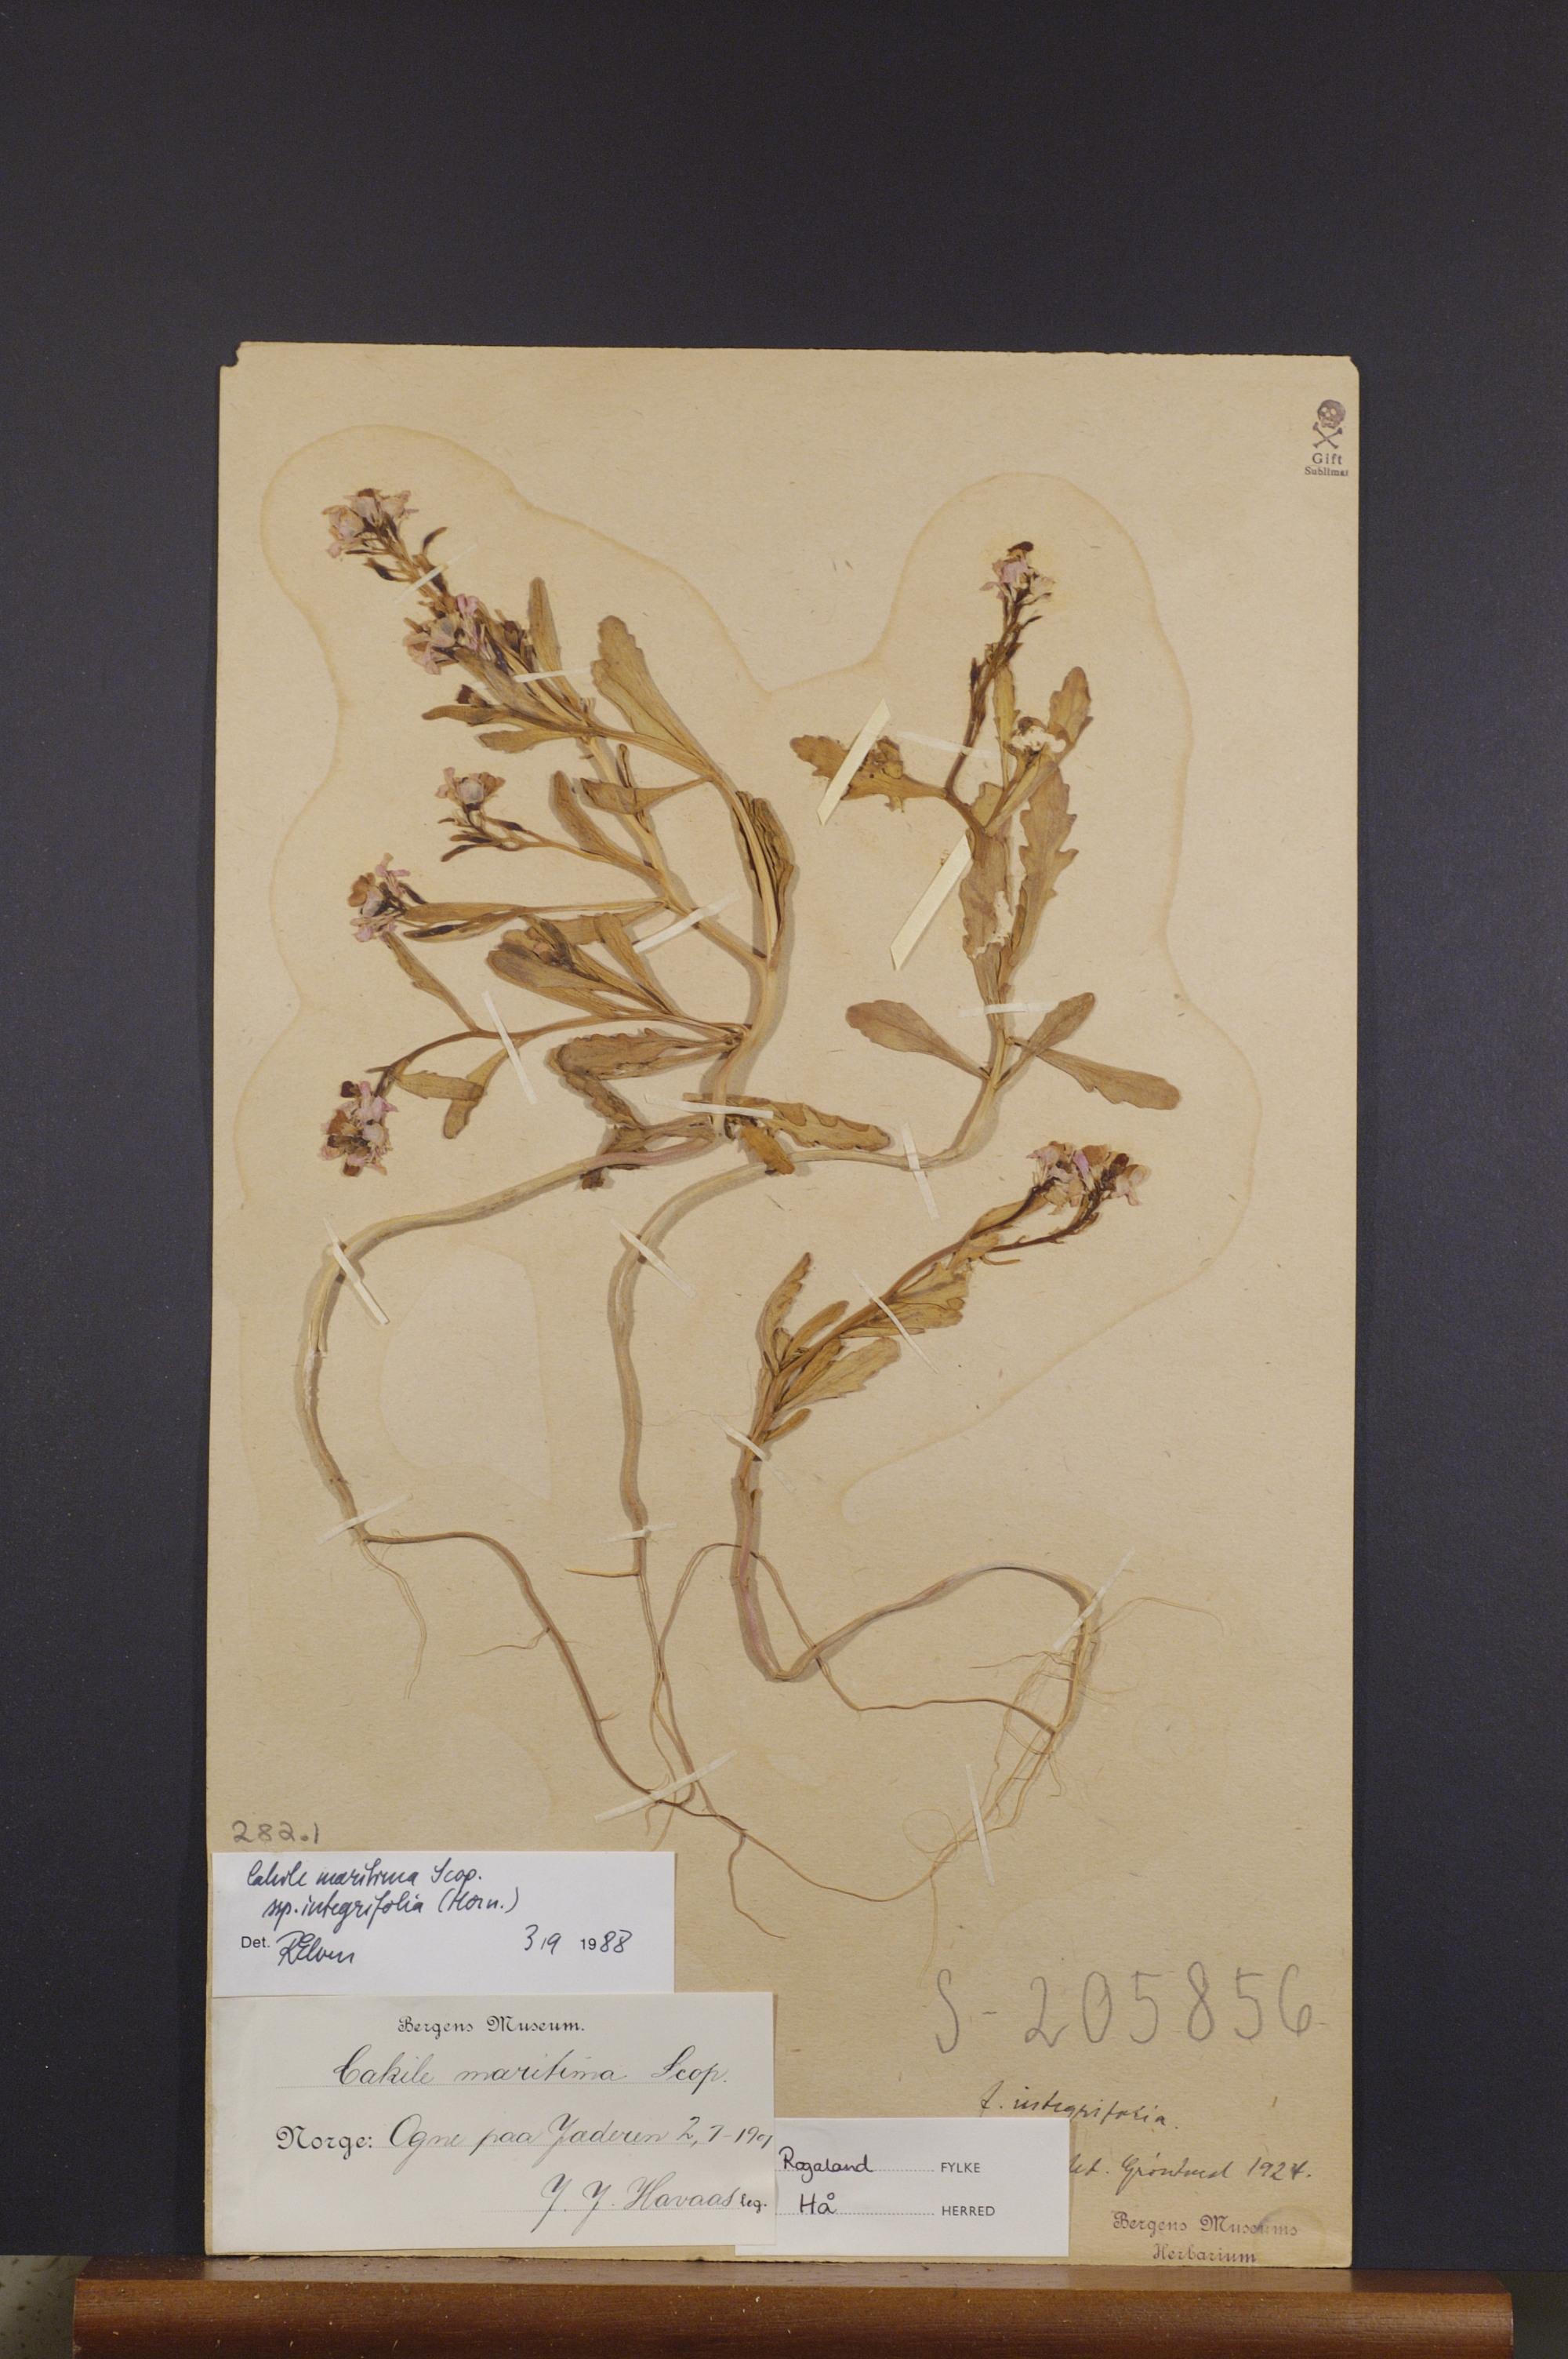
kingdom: Plantae
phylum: Tracheophyta
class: Magnoliopsida
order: Brassicales
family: Brassicaceae
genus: Cakile
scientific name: Cakile maritima
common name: Sea rocket
